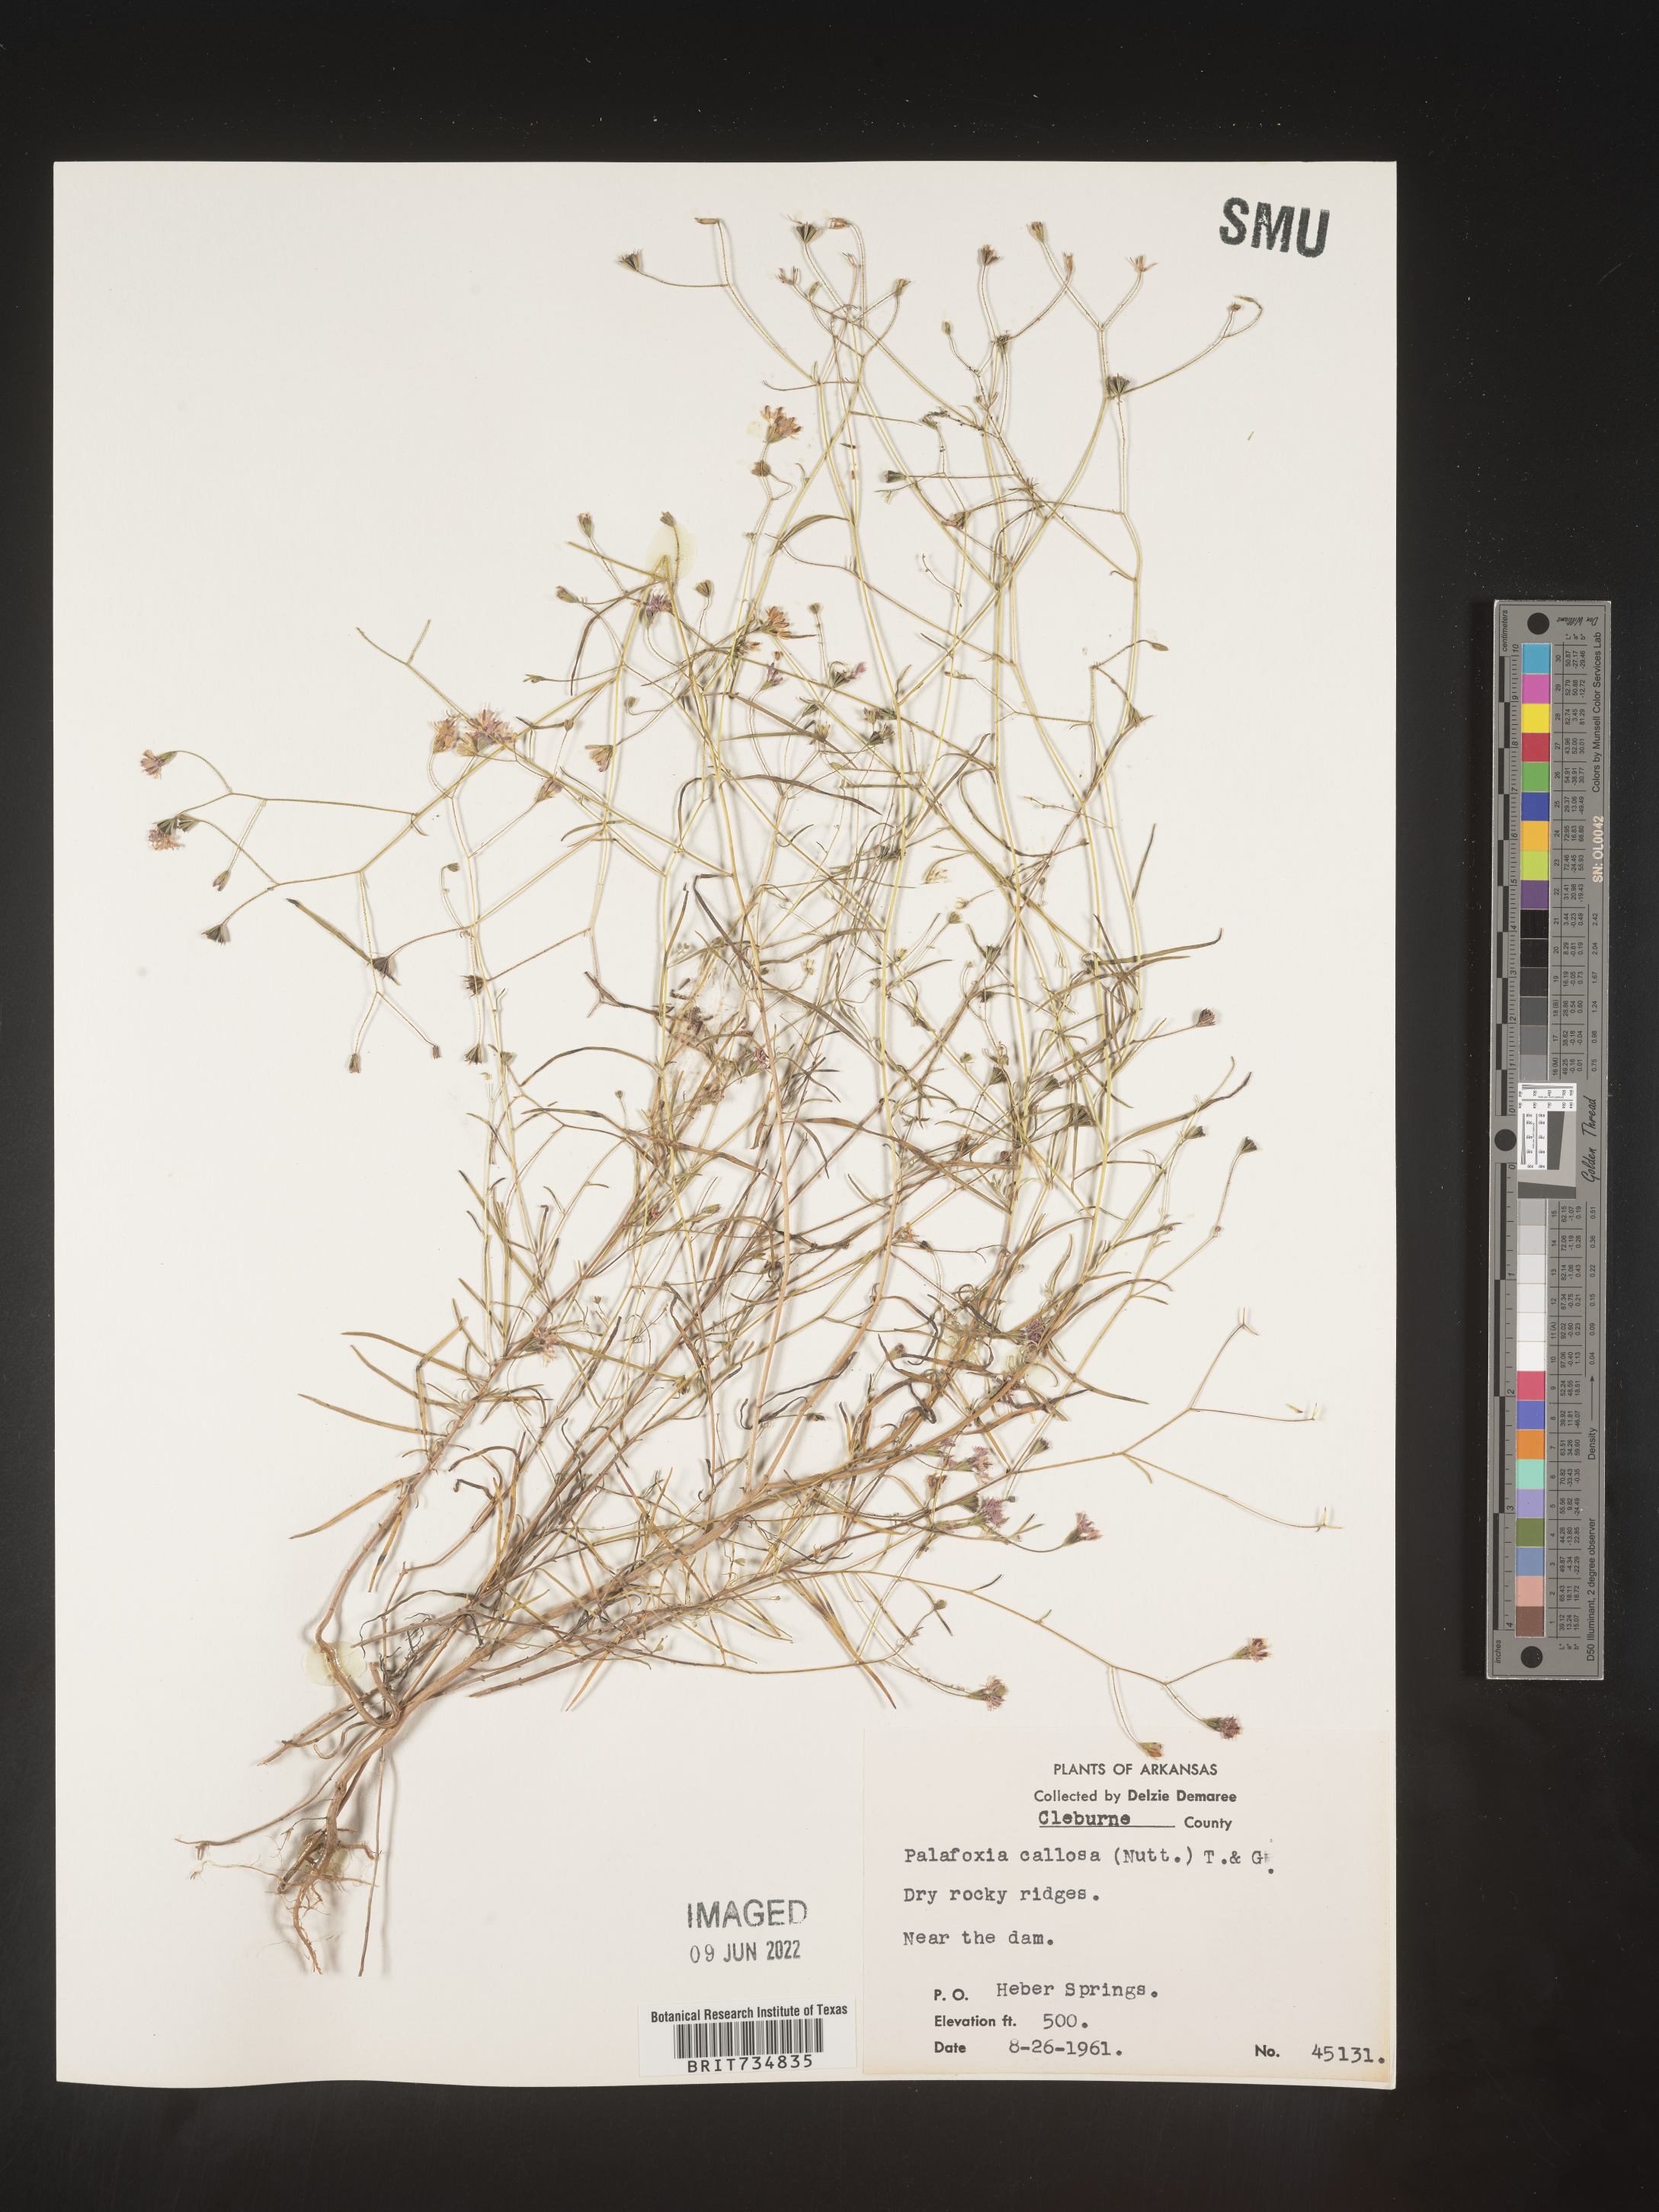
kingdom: Plantae
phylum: Tracheophyta
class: Magnoliopsida
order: Asterales
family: Asteraceae
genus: Palafoxia
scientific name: Palafoxia callosa
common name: Small palafox
